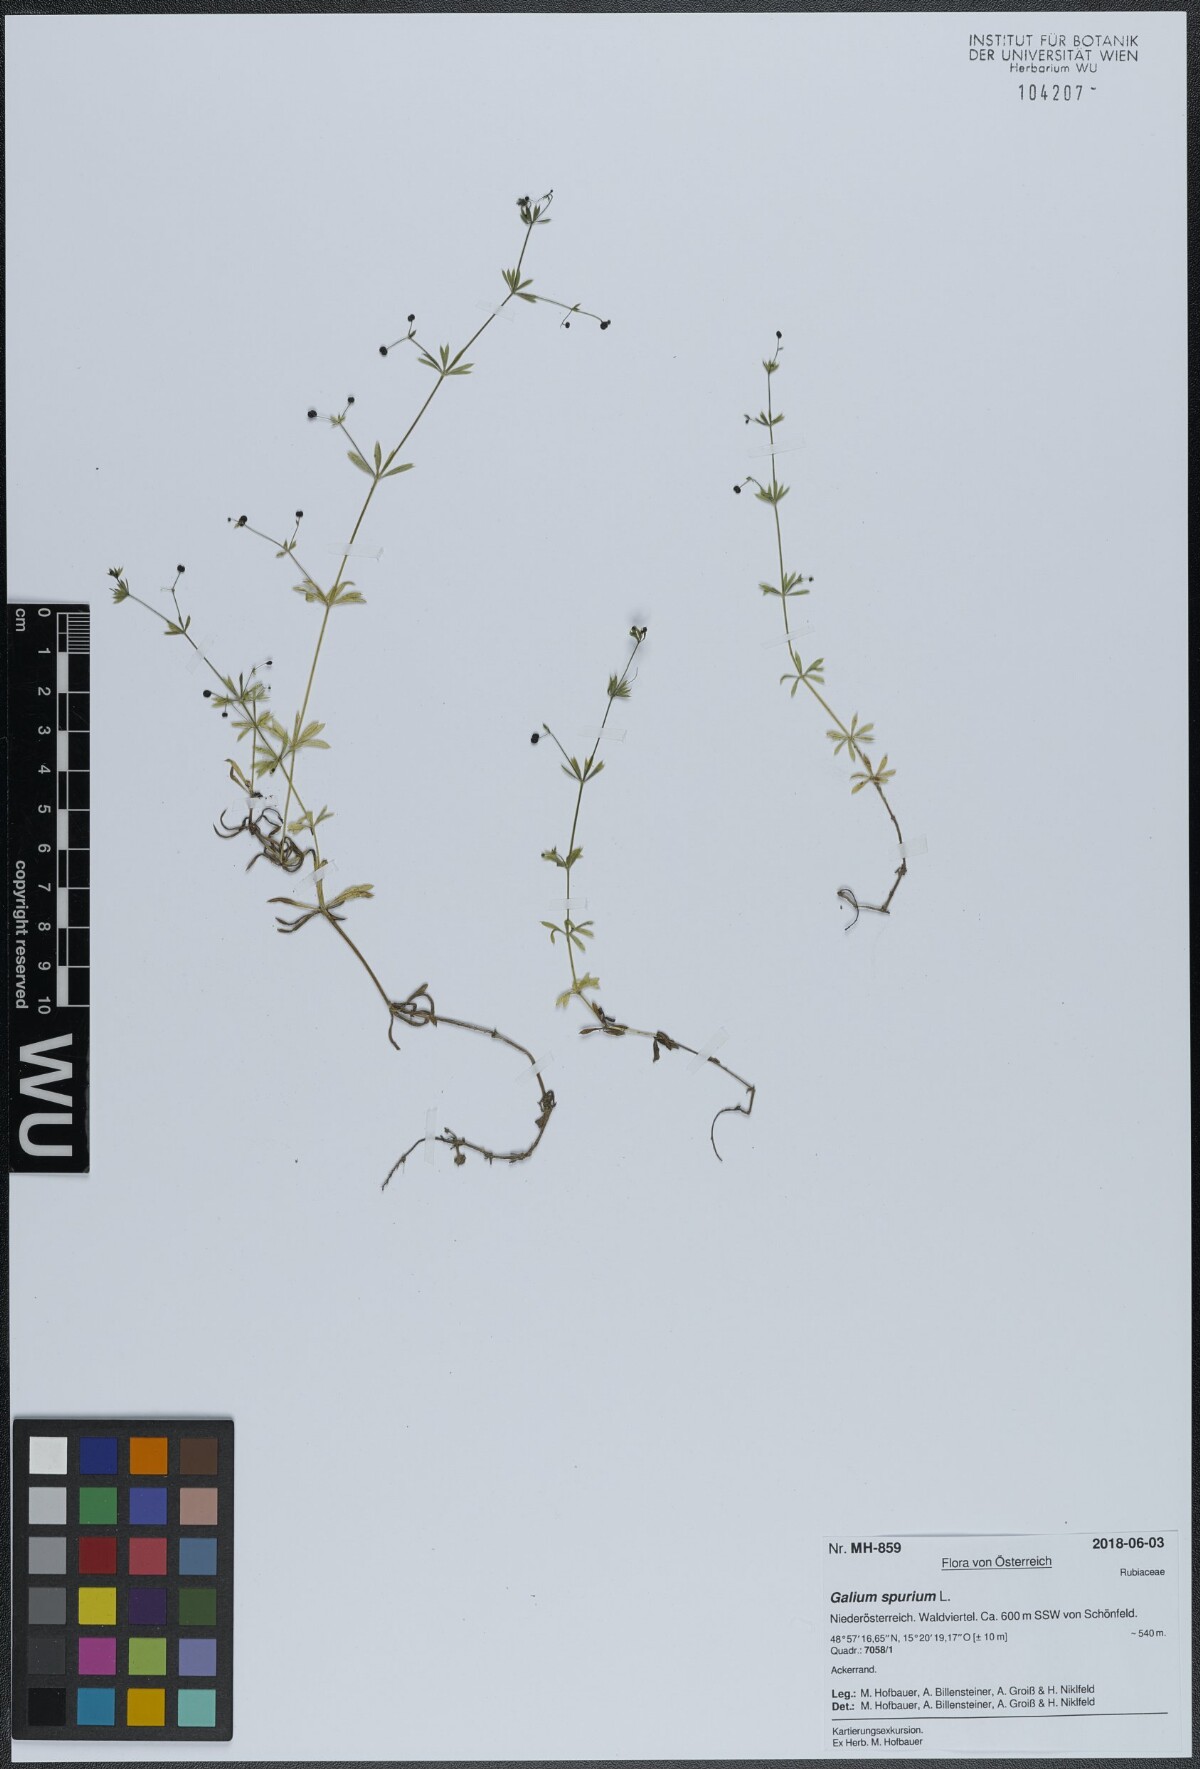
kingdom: Plantae
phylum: Tracheophyta
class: Magnoliopsida
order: Gentianales
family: Rubiaceae
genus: Galium
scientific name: Galium spurium
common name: False cleavers
